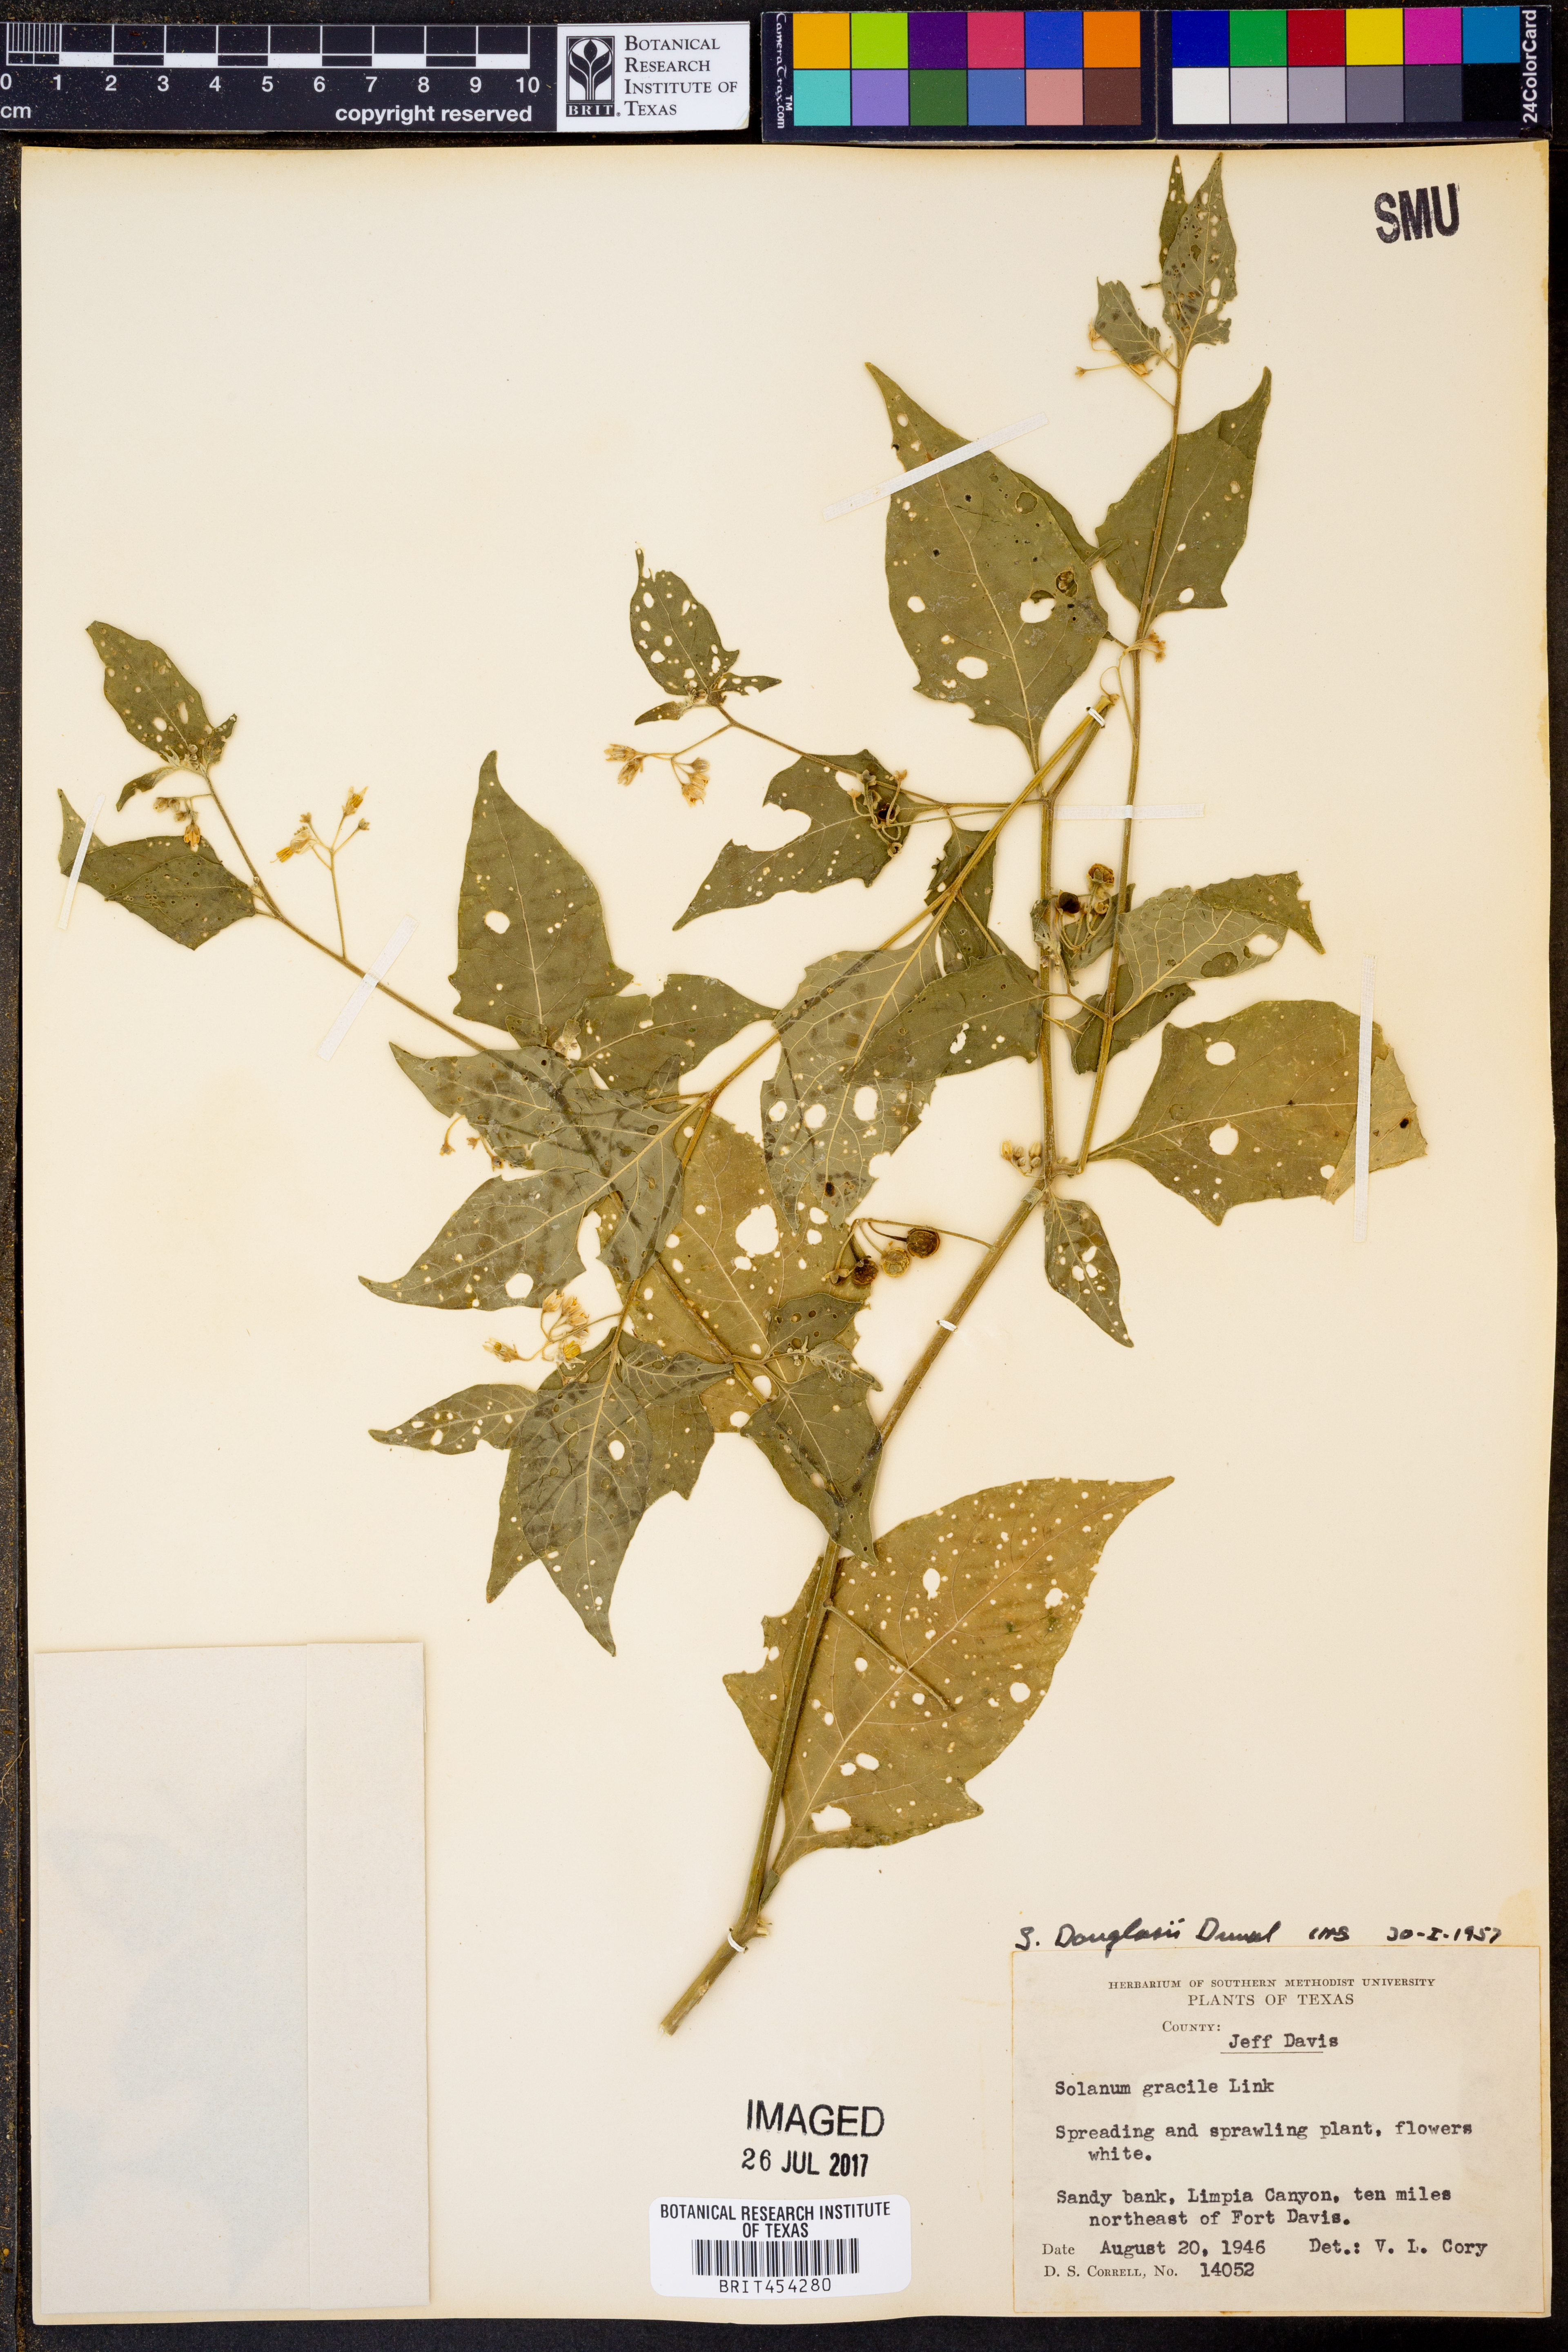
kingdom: Plantae
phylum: Tracheophyta
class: Magnoliopsida
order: Solanales
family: Solanaceae
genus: Solanum
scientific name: Solanum suaveolens
